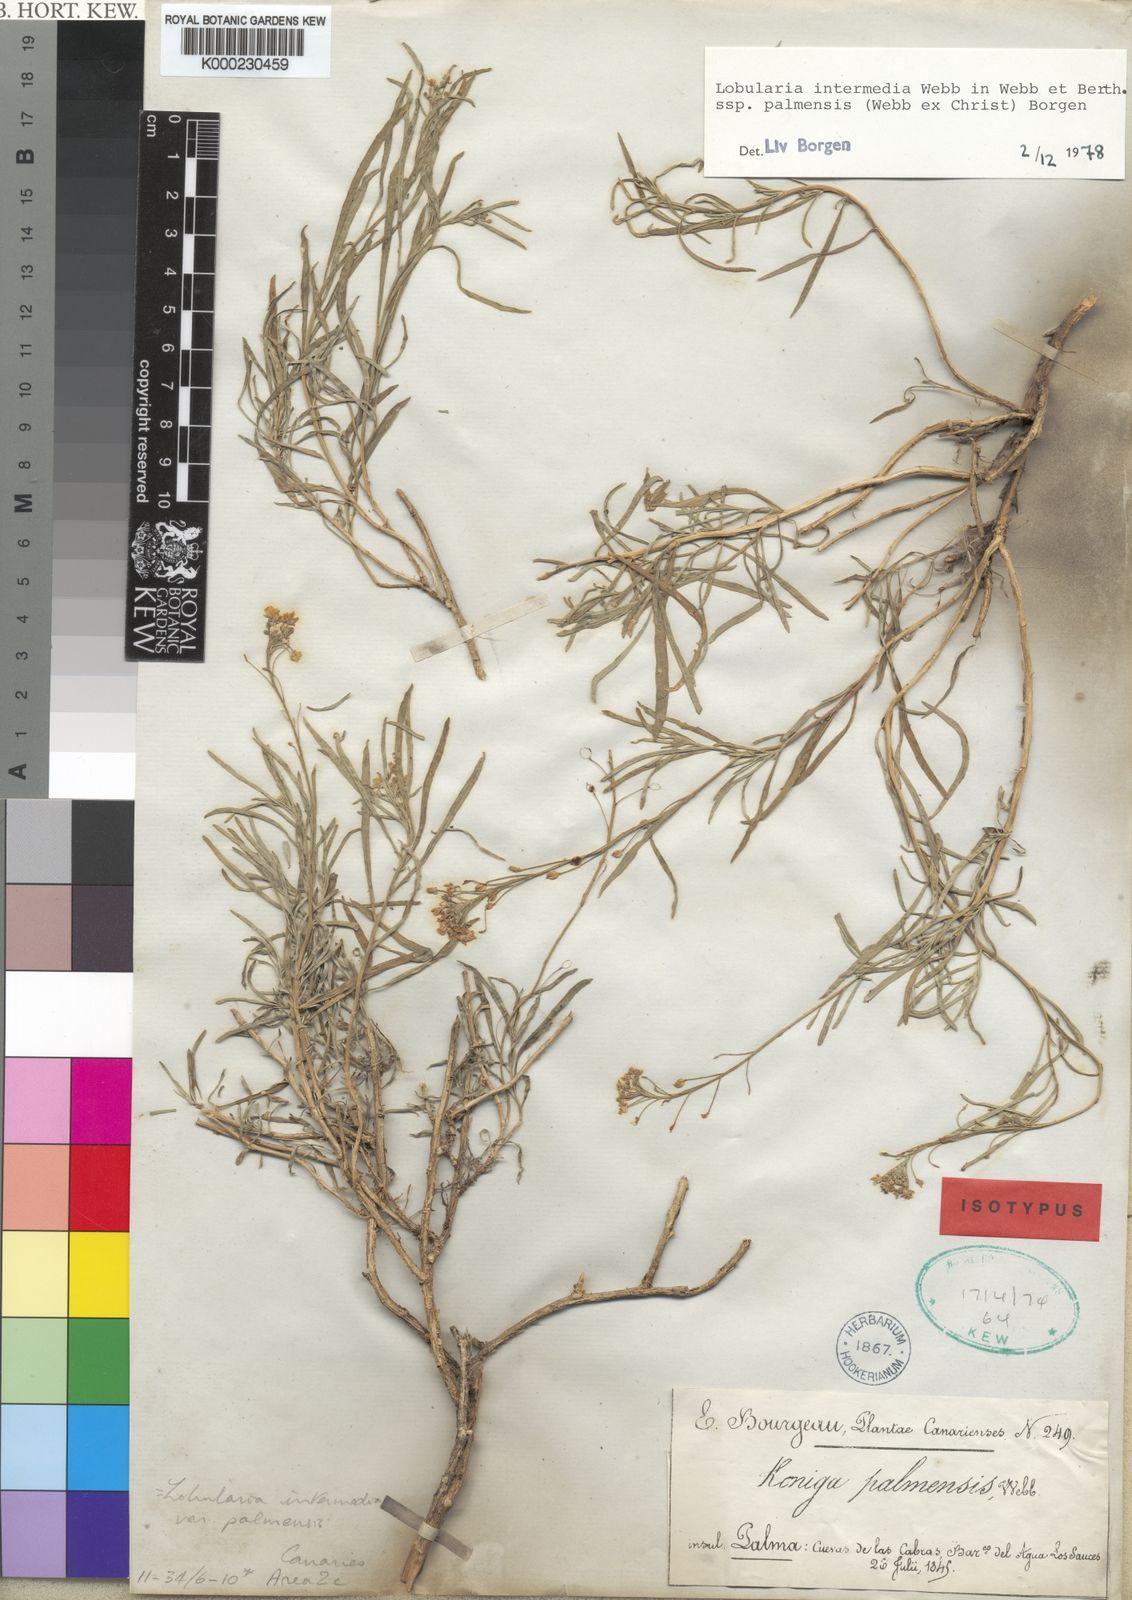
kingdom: Plantae
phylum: Tracheophyta
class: Magnoliopsida
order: Brassicales
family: Brassicaceae
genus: Lobularia
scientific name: Lobularia canariensis
